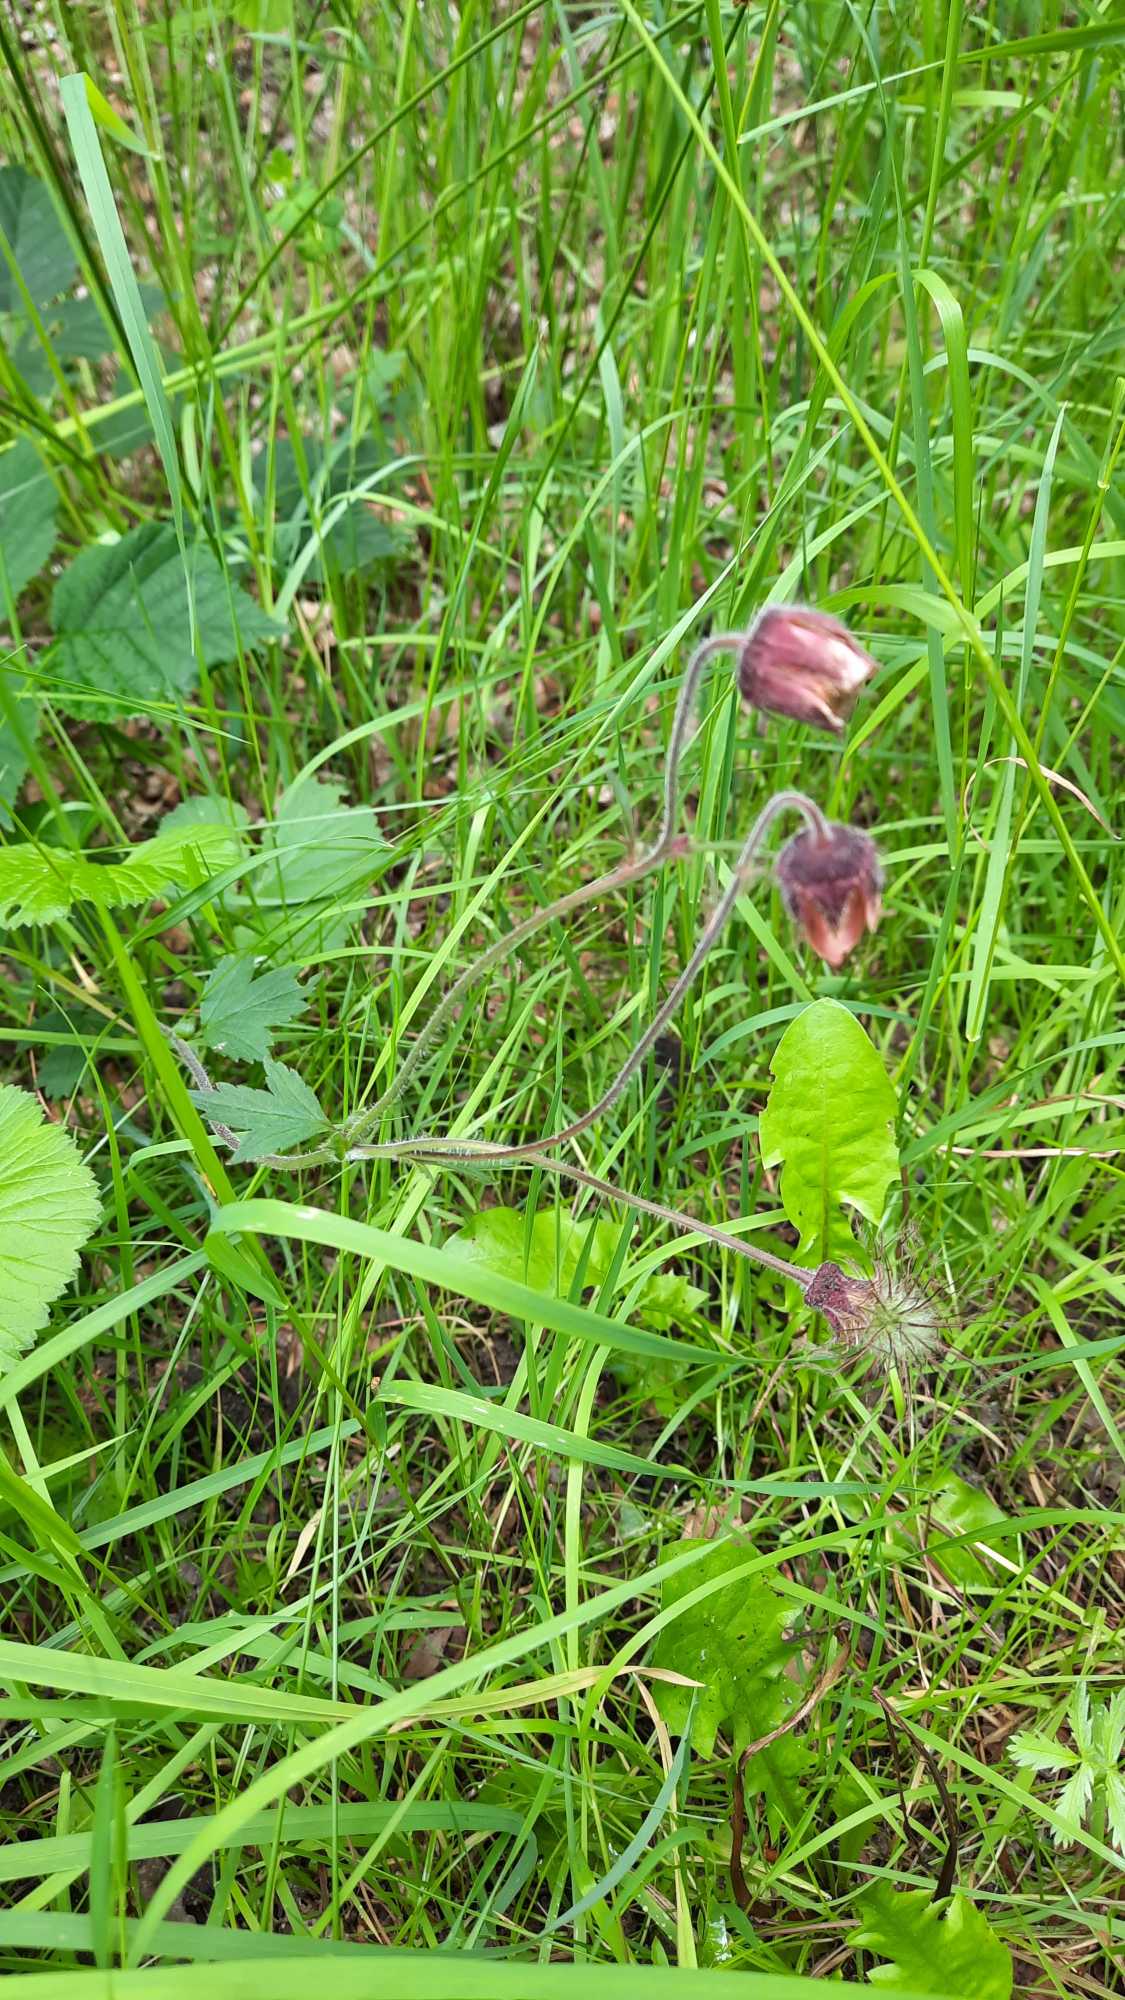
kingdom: Plantae
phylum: Tracheophyta
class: Magnoliopsida
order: Rosales
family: Rosaceae
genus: Geum
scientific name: Geum rivale
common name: Eng-nellikerod
